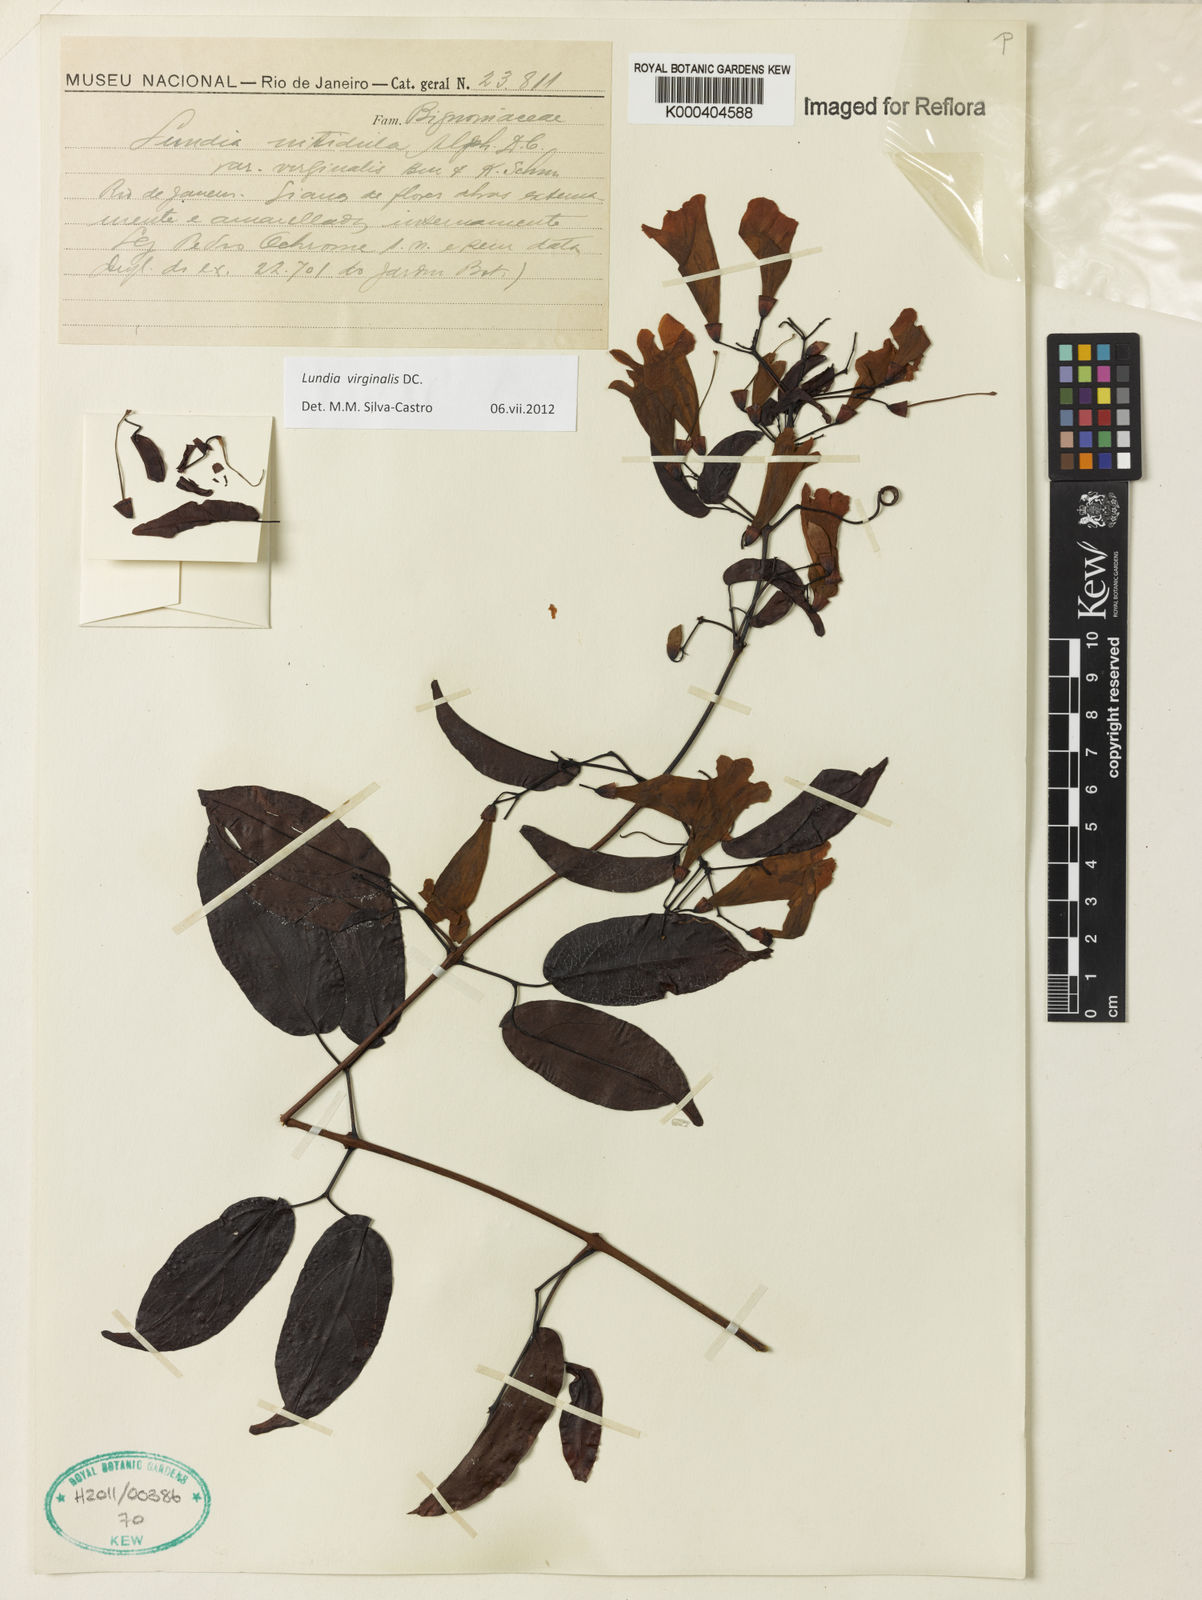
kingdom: Plantae
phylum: Tracheophyta
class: Magnoliopsida
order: Lamiales
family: Bignoniaceae
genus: Lundia
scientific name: Lundia virginalis
